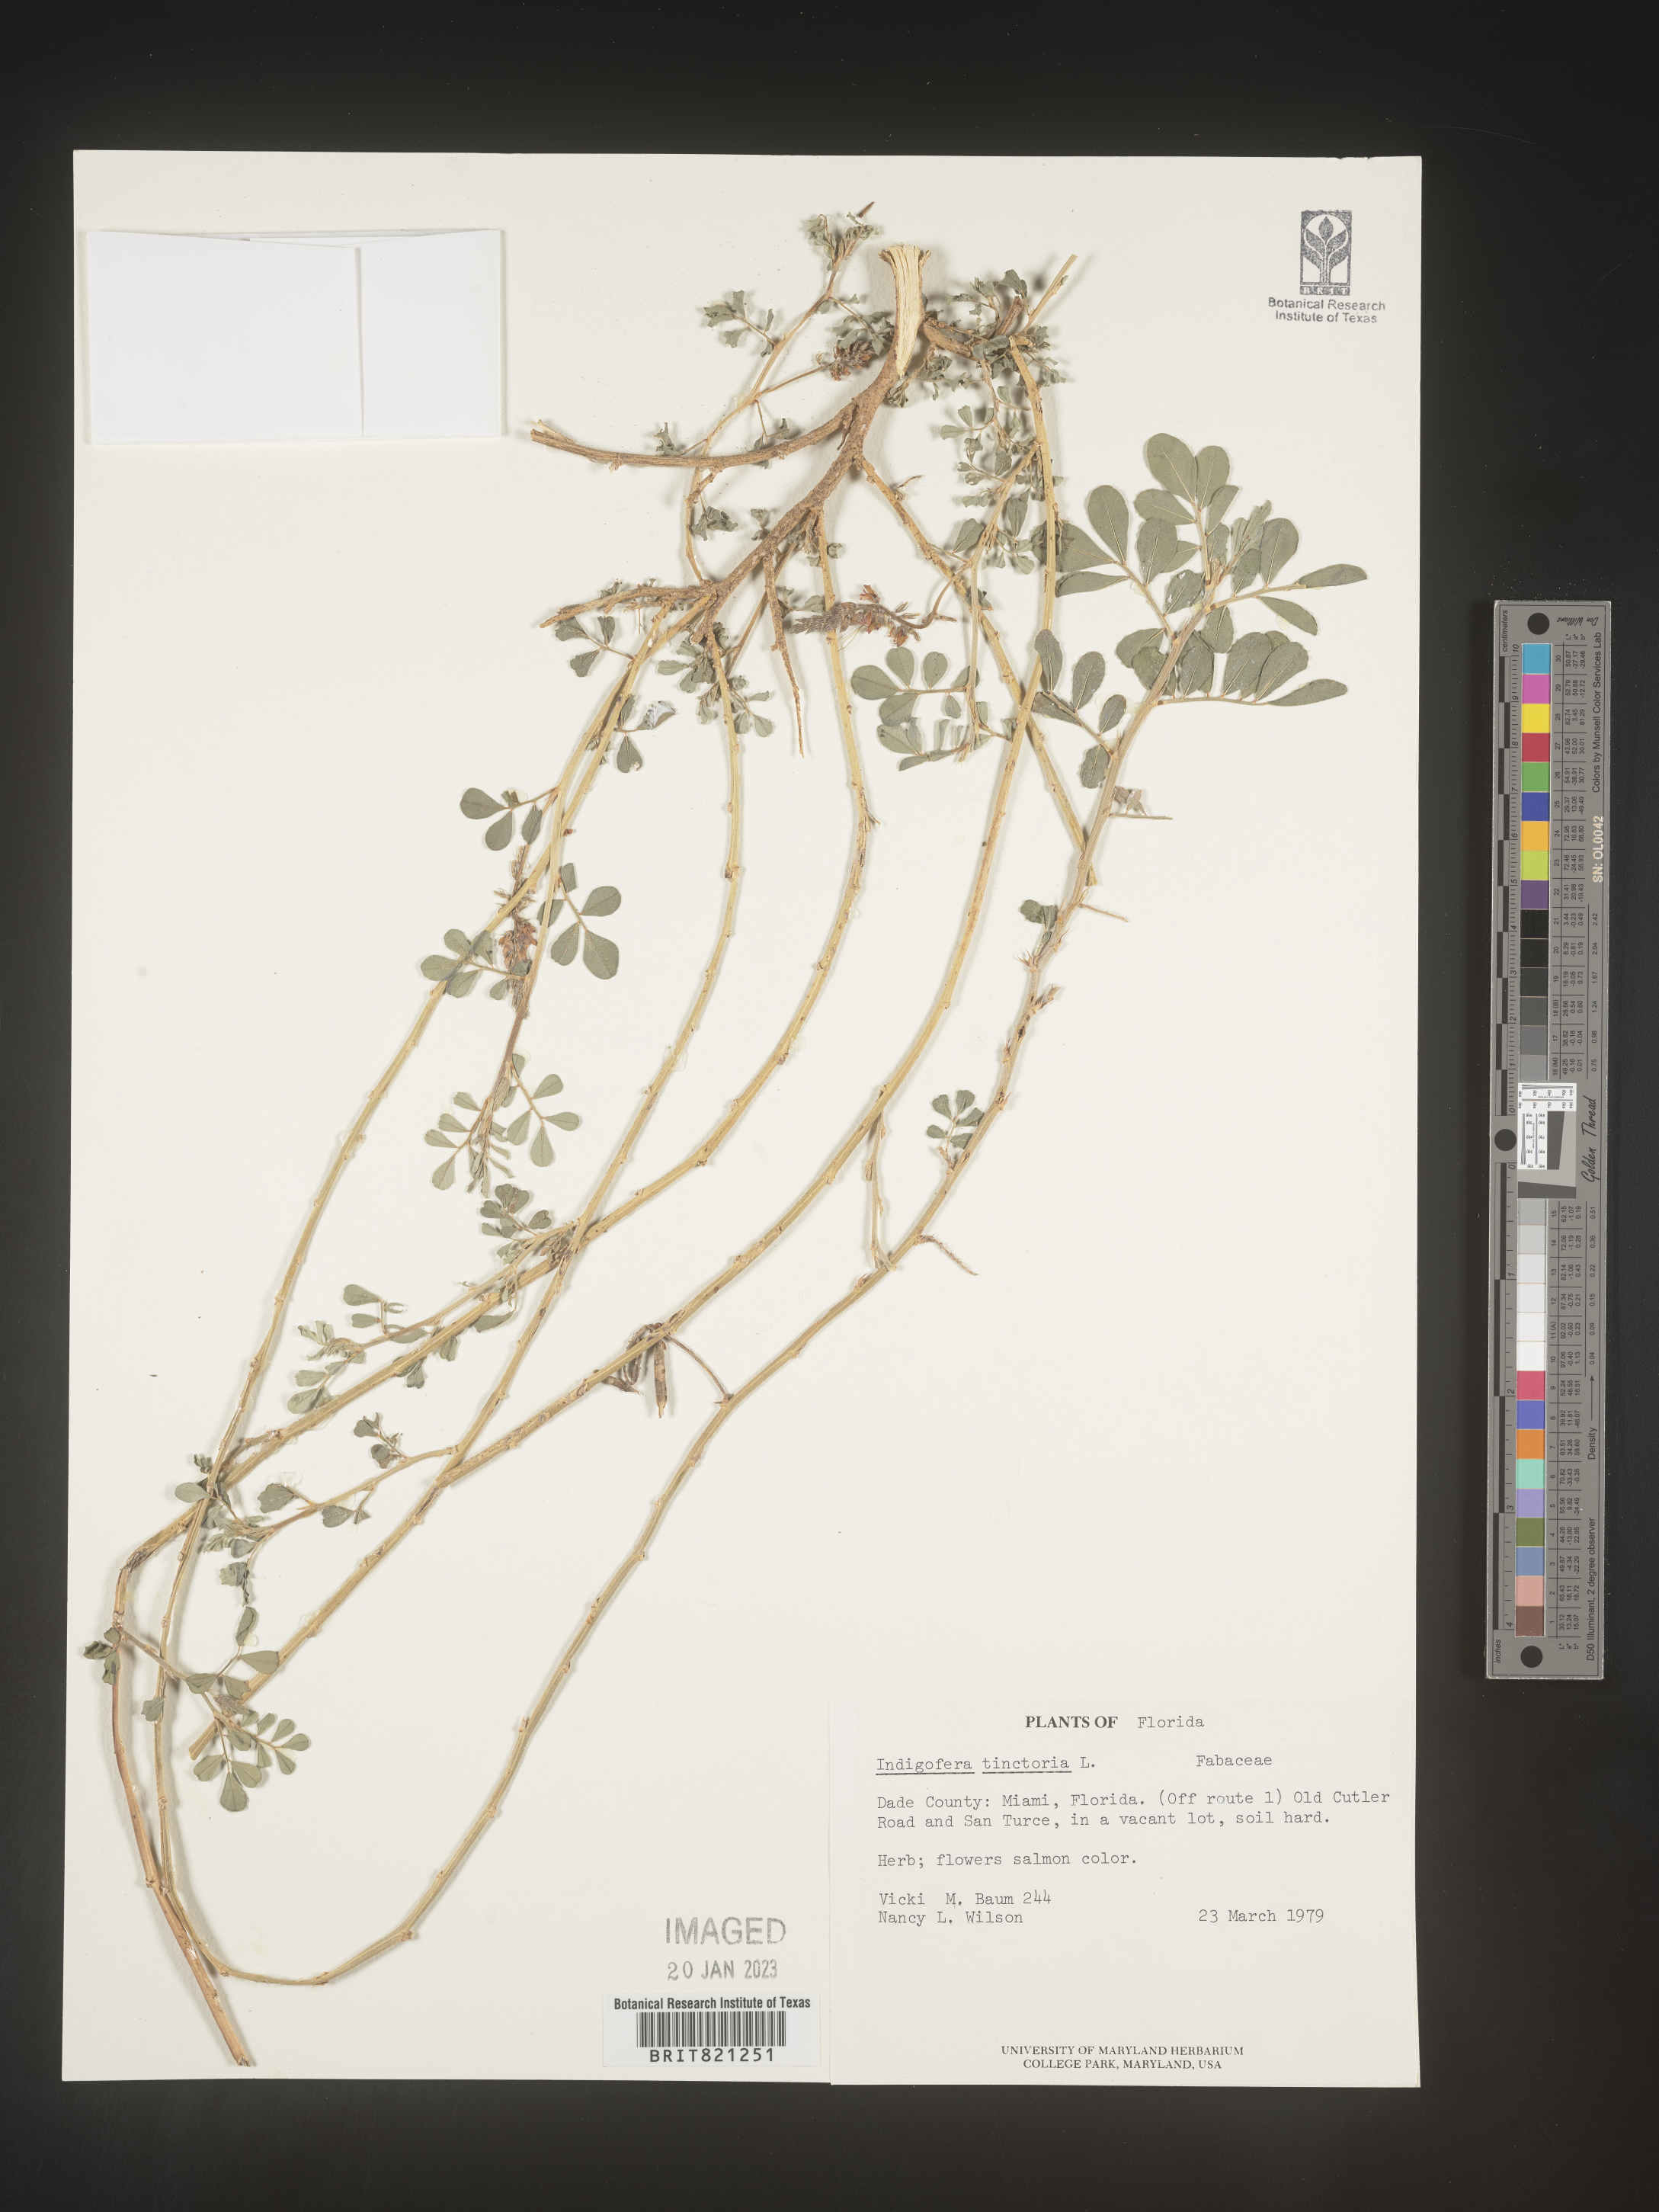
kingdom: Plantae
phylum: Tracheophyta
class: Magnoliopsida
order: Fabales
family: Fabaceae
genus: Indigofera
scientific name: Indigofera
